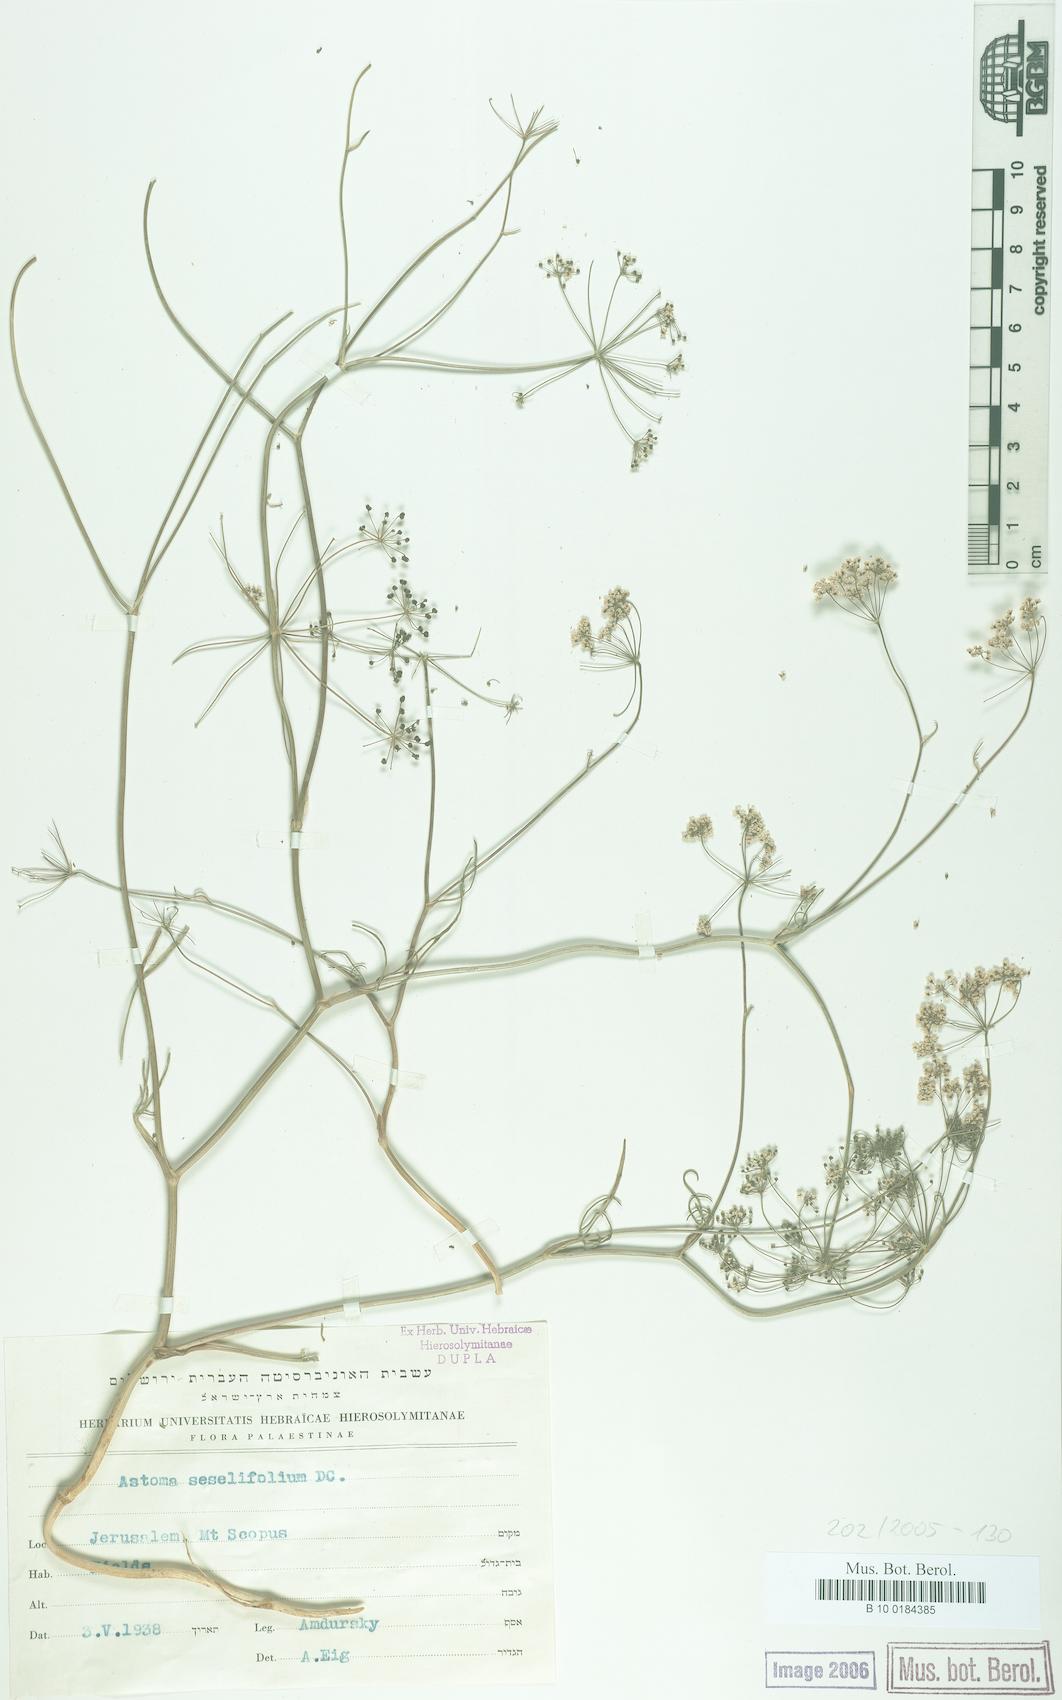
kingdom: Plantae
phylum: Tracheophyta
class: Magnoliopsida
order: Apiales
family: Apiaceae
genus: Astomaea
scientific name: Astomaea seselifolium
